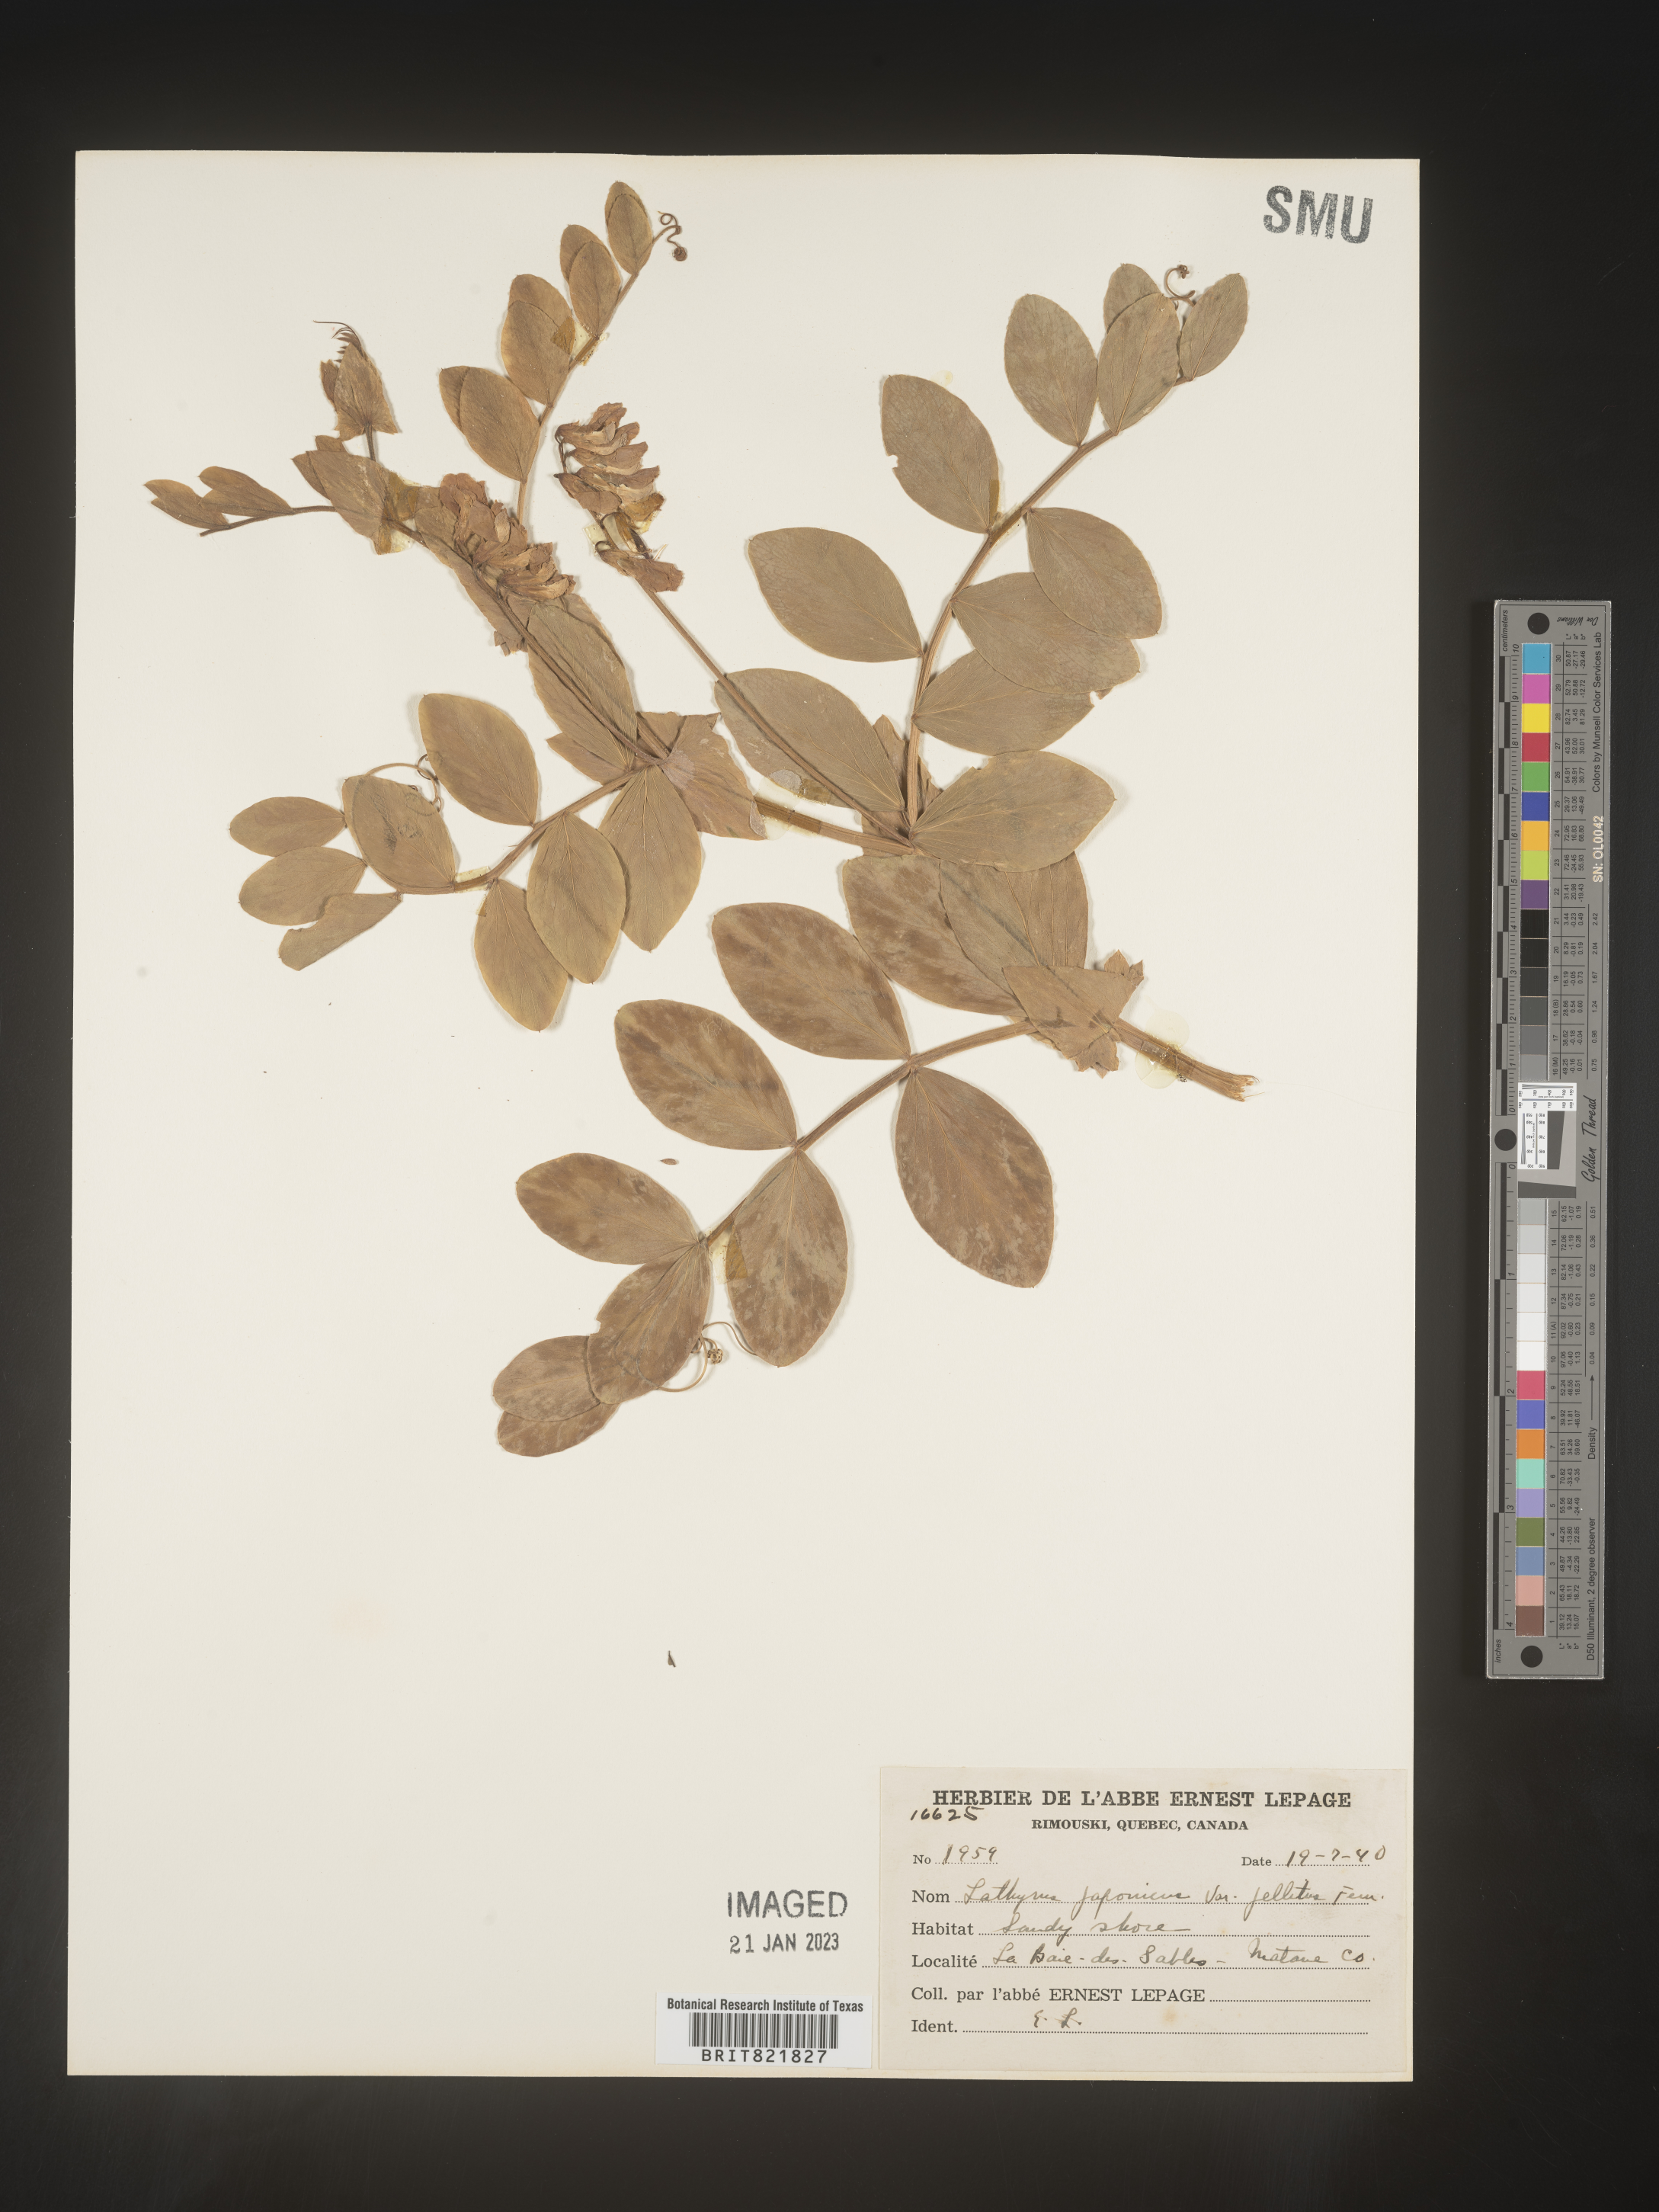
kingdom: Plantae
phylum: Tracheophyta
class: Magnoliopsida
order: Fabales
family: Fabaceae
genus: Lathyrus
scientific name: Lathyrus japonicus
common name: Sea pea
